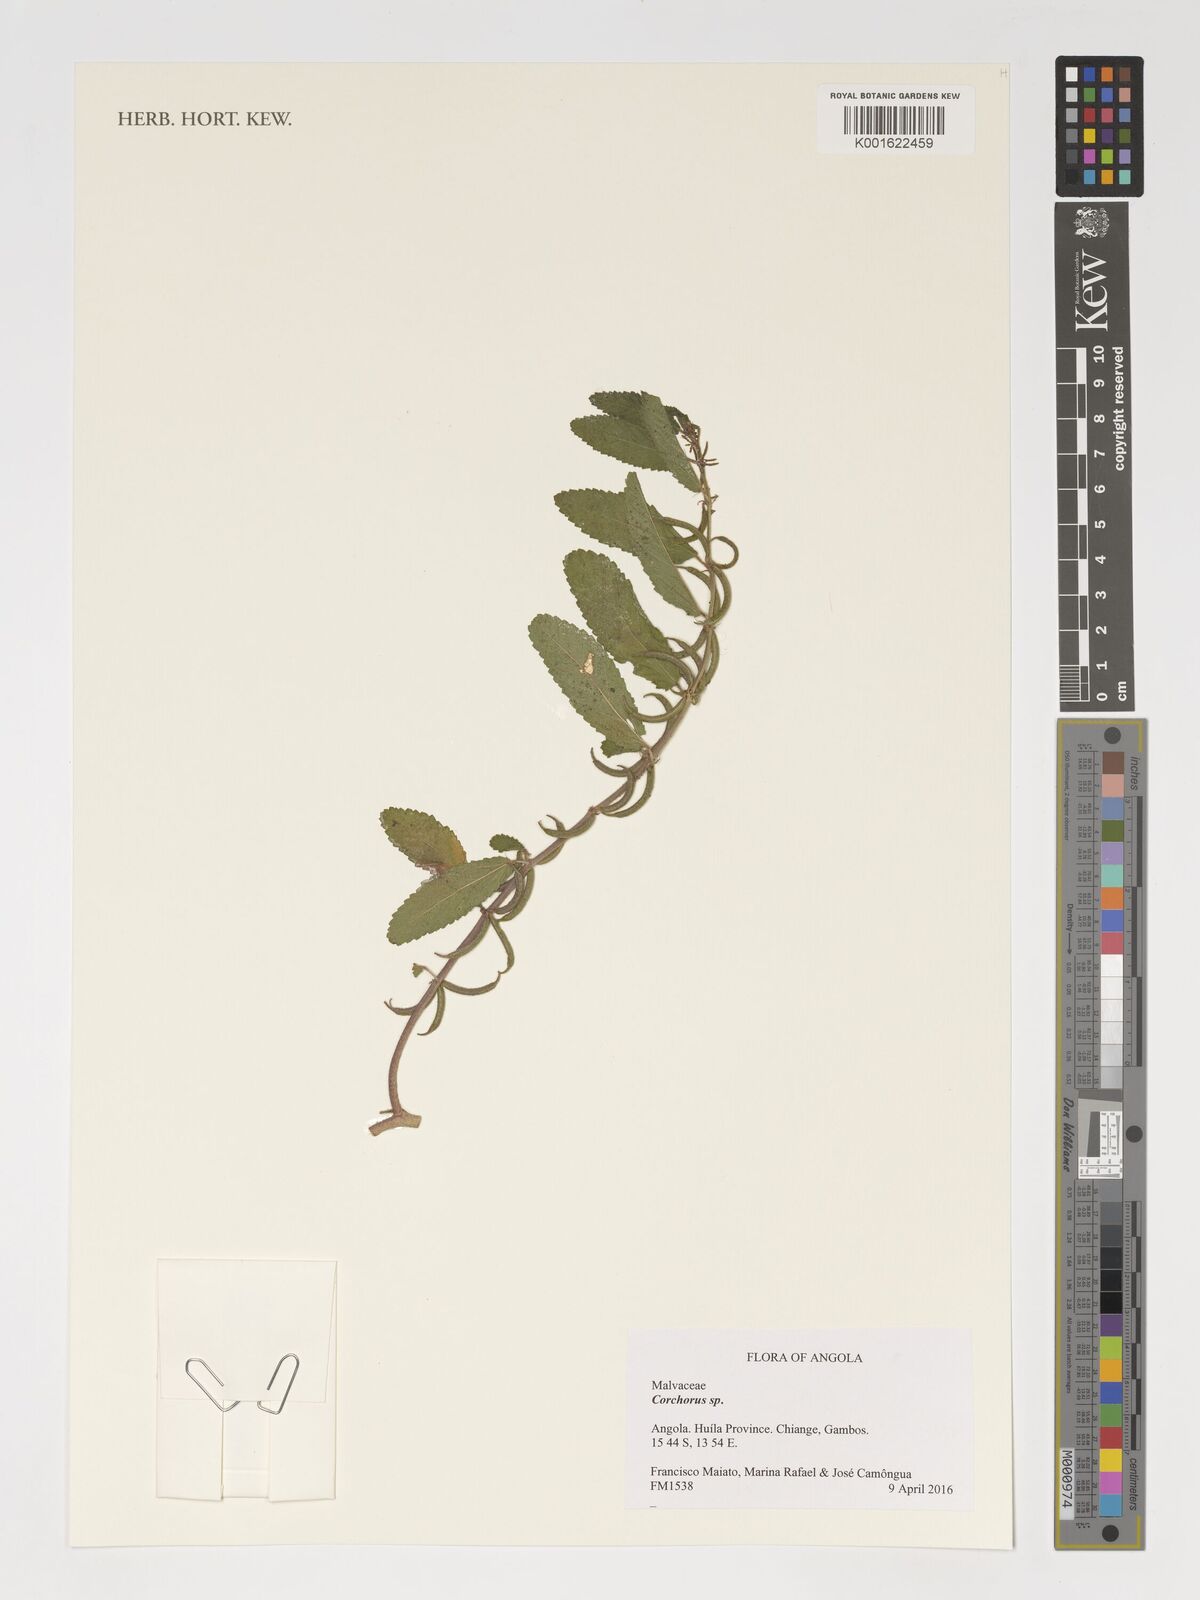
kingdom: Plantae
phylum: Tracheophyta
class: Magnoliopsida
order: Malvales
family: Malvaceae
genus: Corchorus
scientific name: Corchorus
